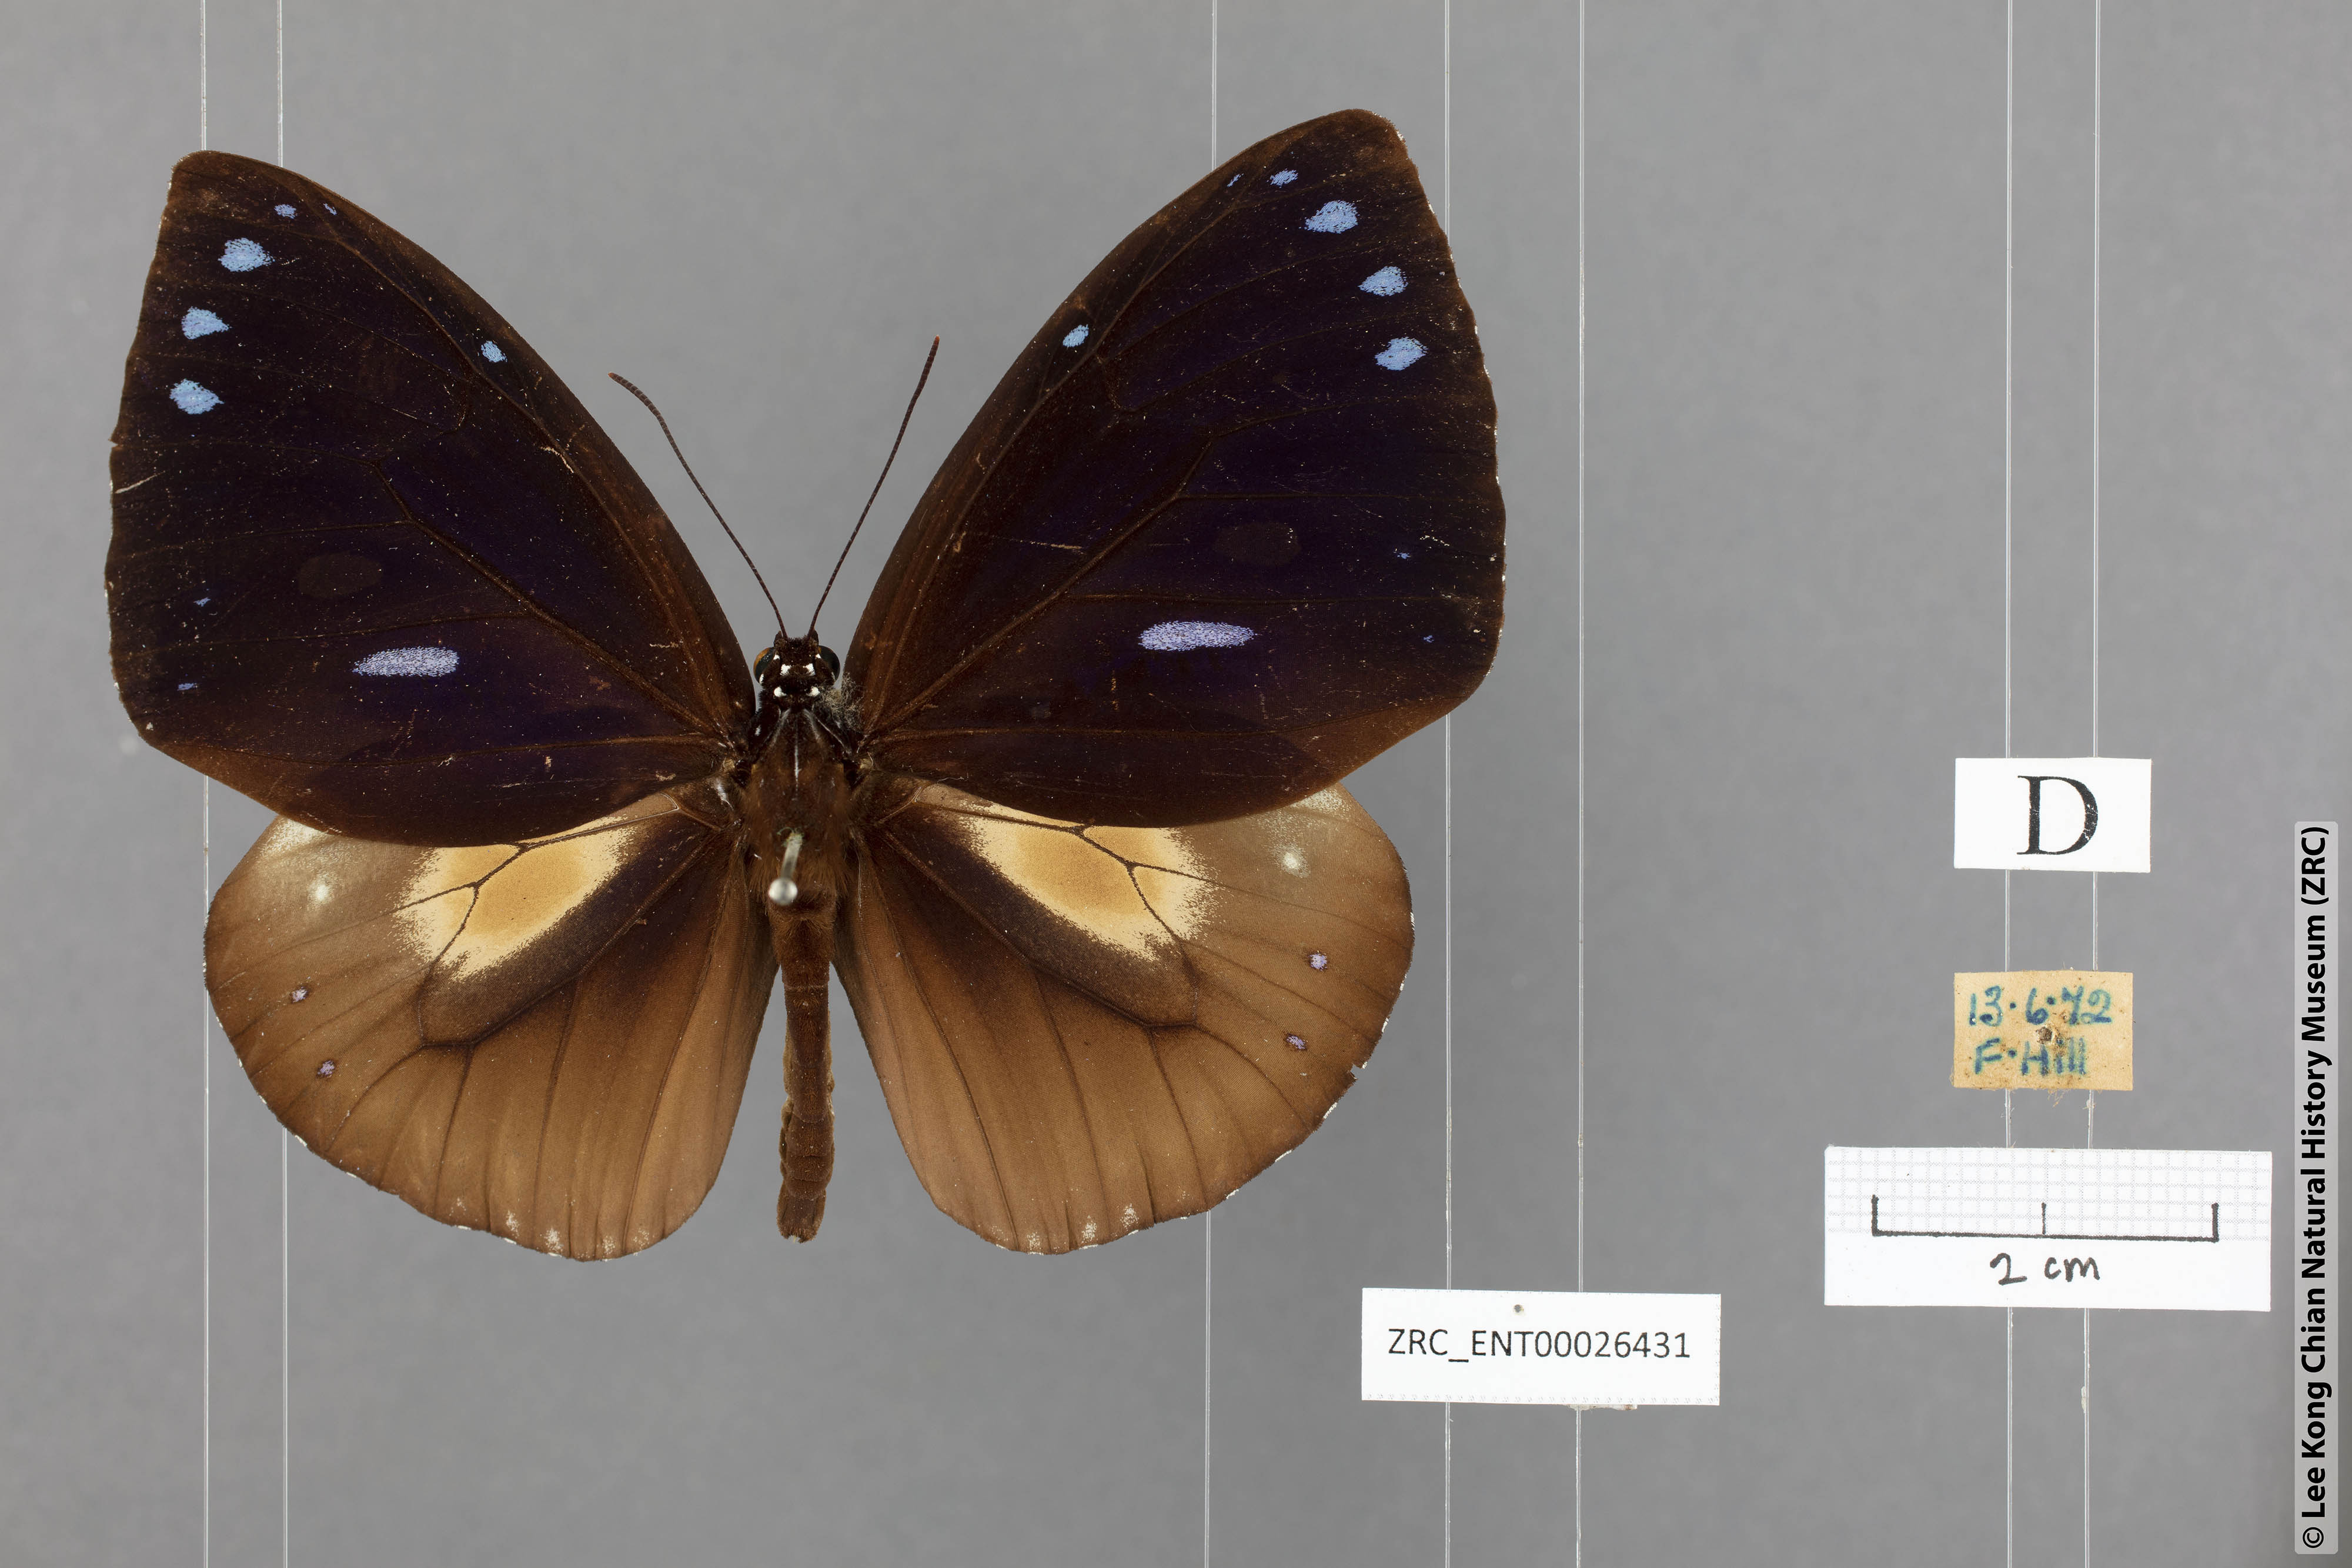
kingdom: Animalia
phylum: Arthropoda
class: Insecta
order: Lepidoptera
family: Nymphalidae
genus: Euploea
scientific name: Euploea eunice
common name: Blue-banded king crow butterfly
